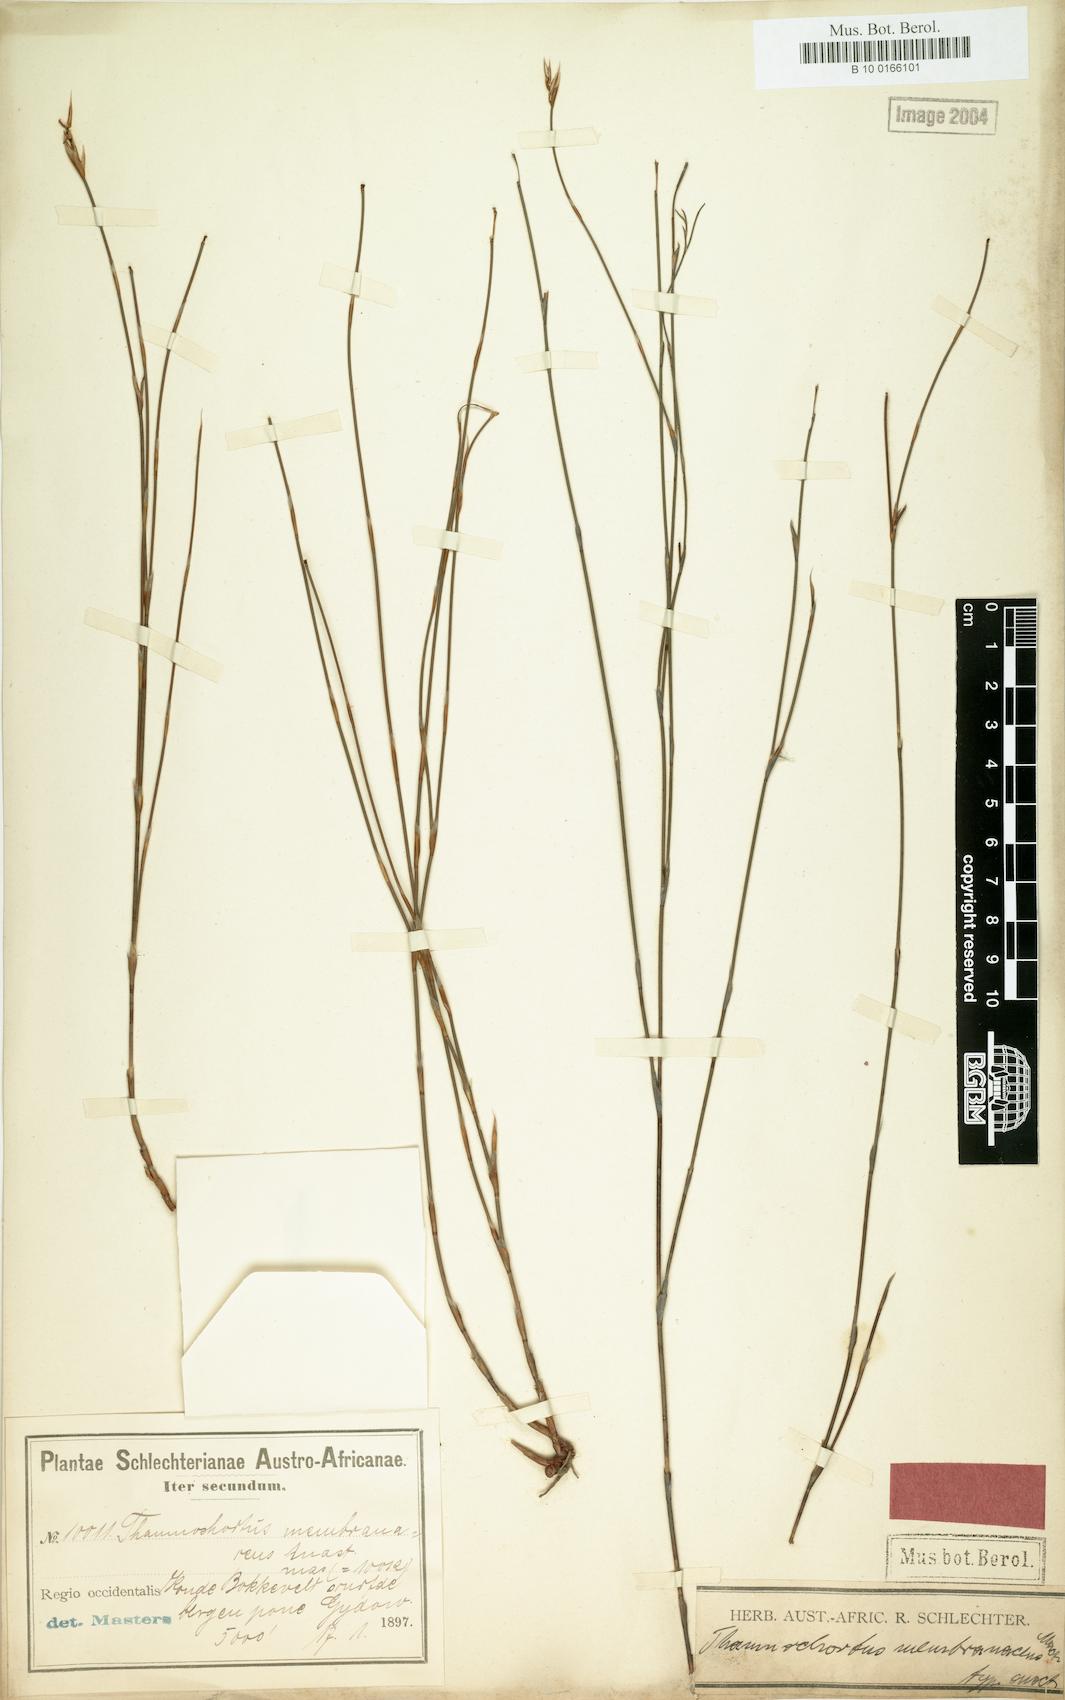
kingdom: Plantae
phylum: Tracheophyta
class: Liliopsida
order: Poales
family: Restionaceae
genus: Restio
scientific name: Restio distichus
